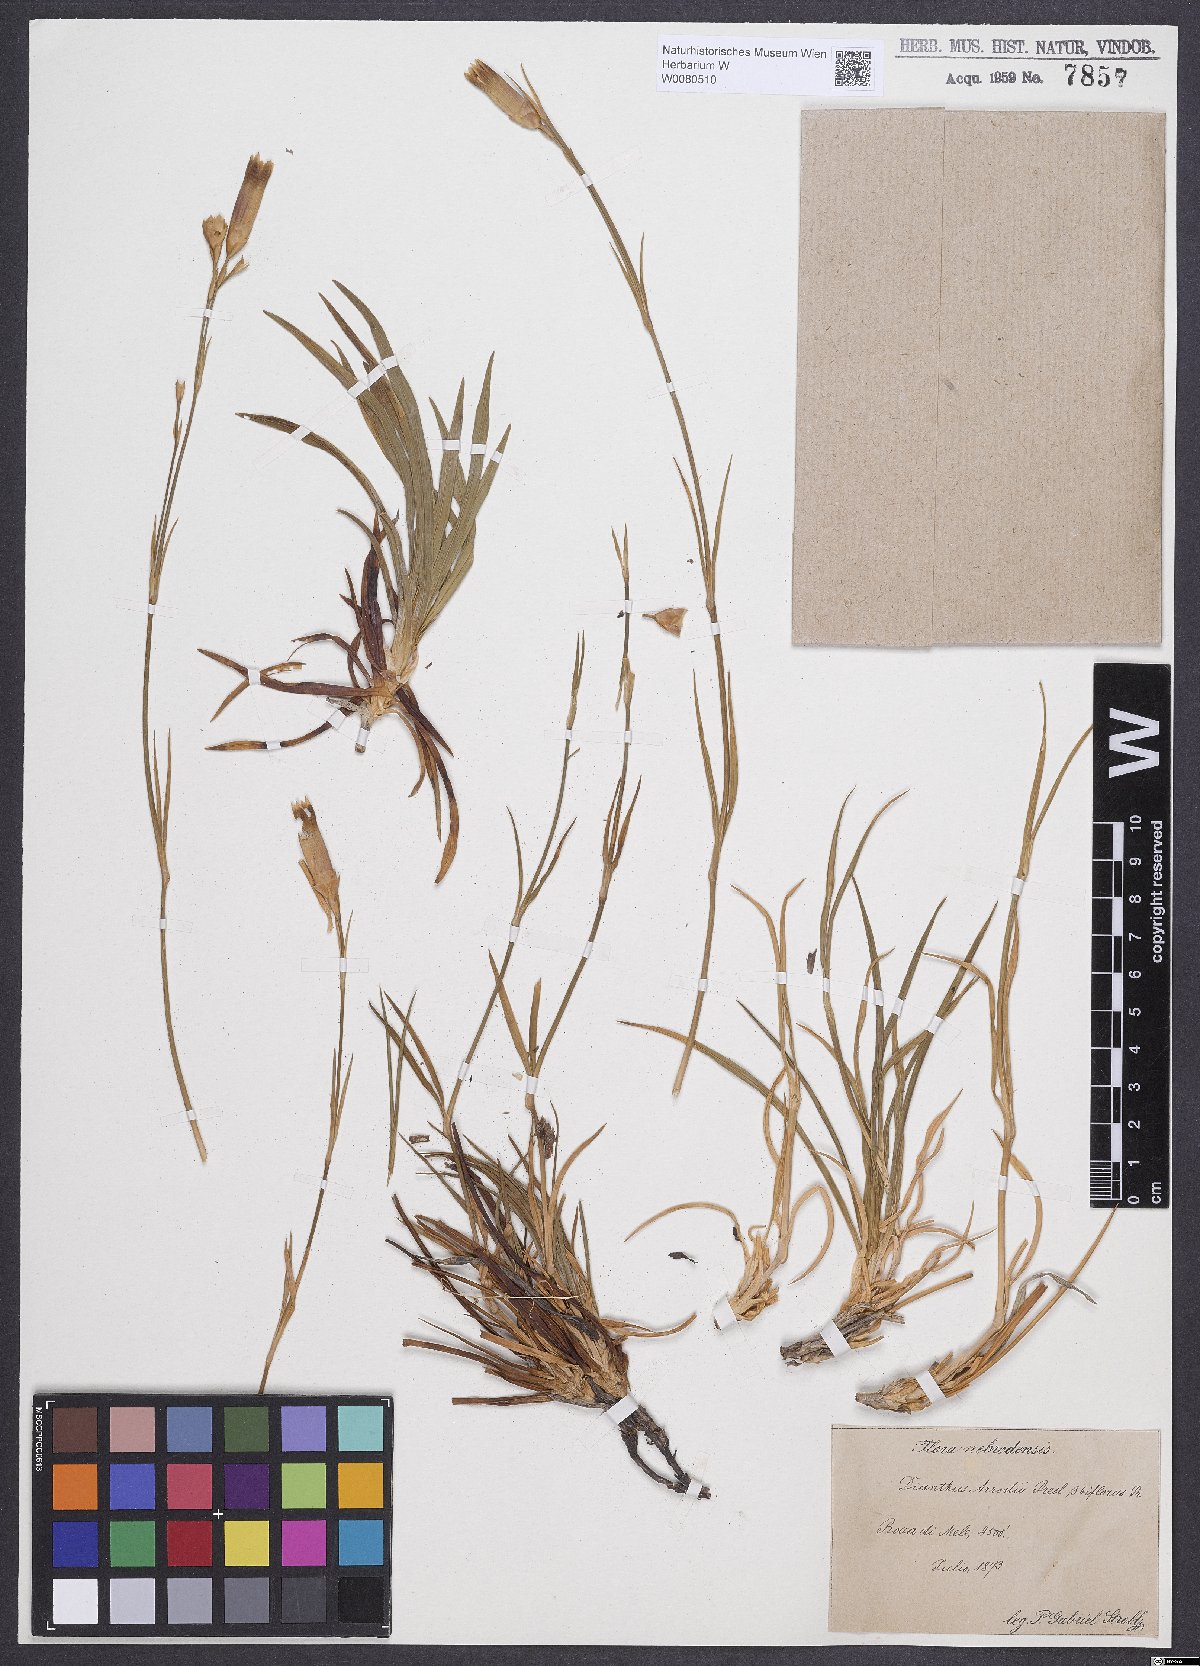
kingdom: Plantae
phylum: Tracheophyta
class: Magnoliopsida
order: Caryophyllales
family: Caryophyllaceae
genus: Dianthus
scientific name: Dianthus arrostii
